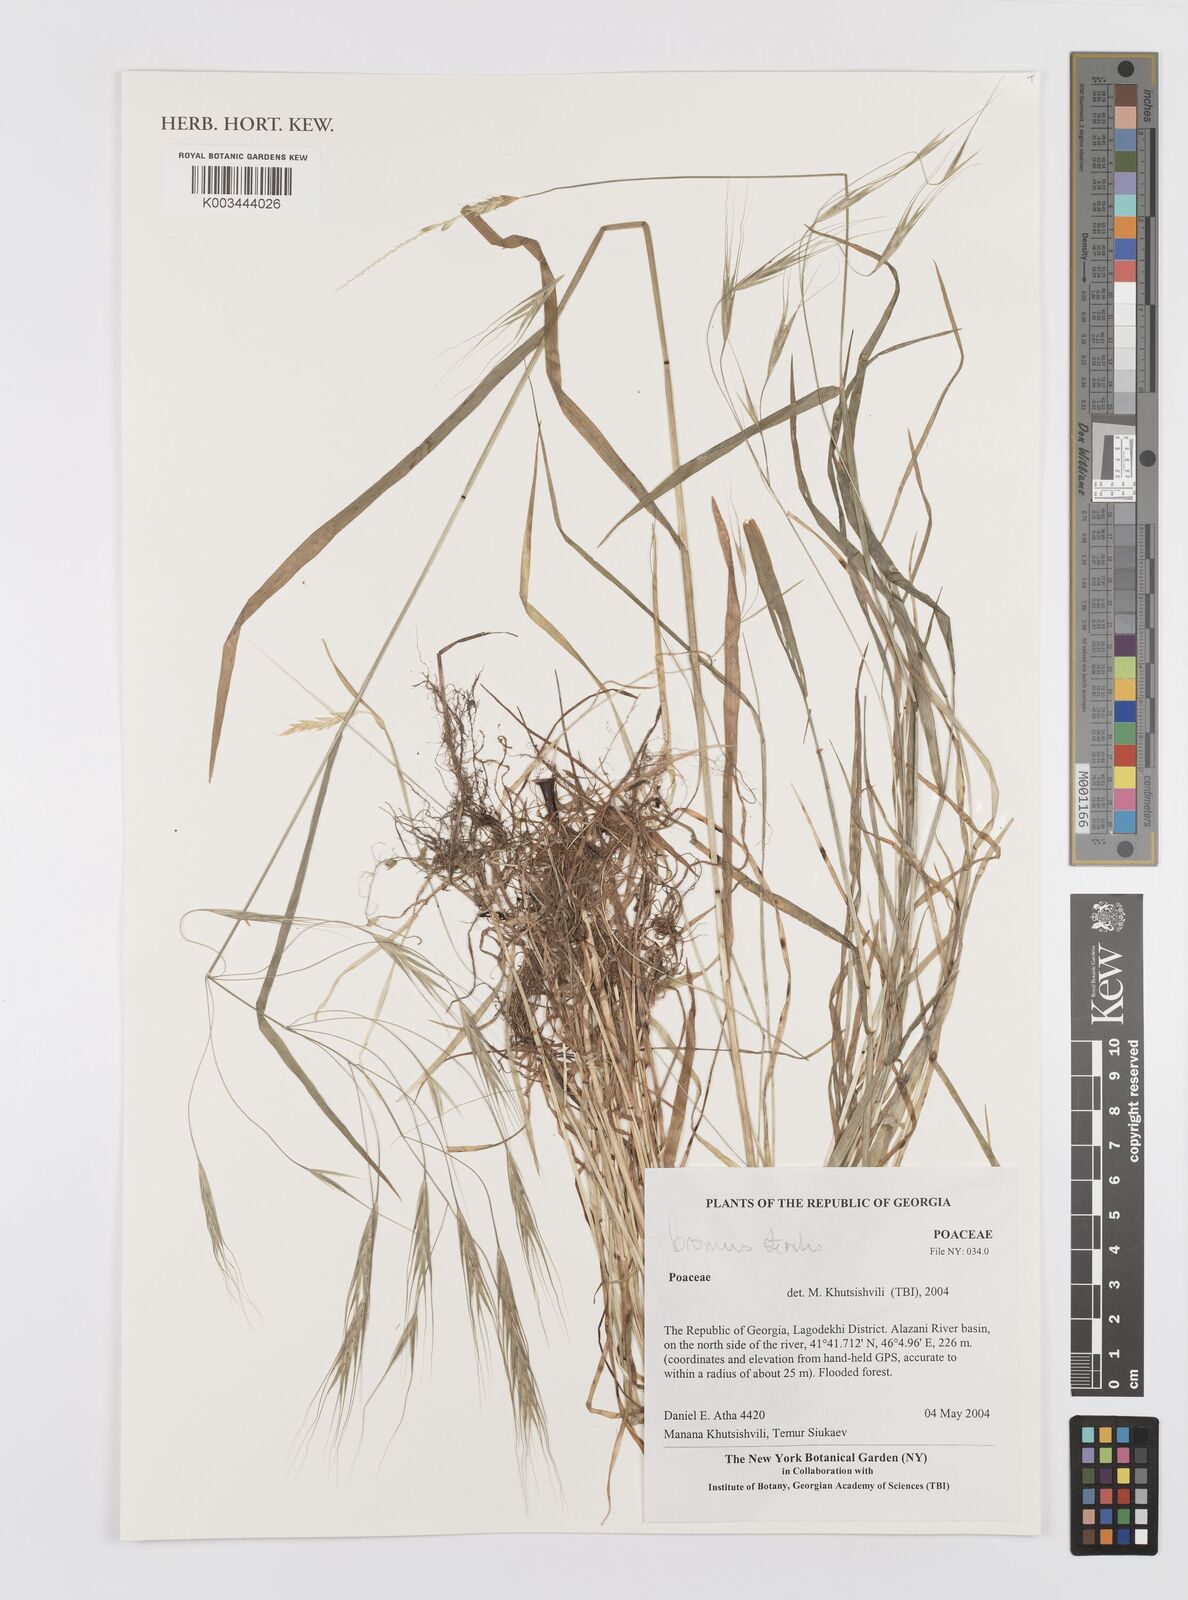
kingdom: Plantae
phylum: Tracheophyta
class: Liliopsida
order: Poales
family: Poaceae
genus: Bromus
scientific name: Bromus sterilis
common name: Poverty brome
